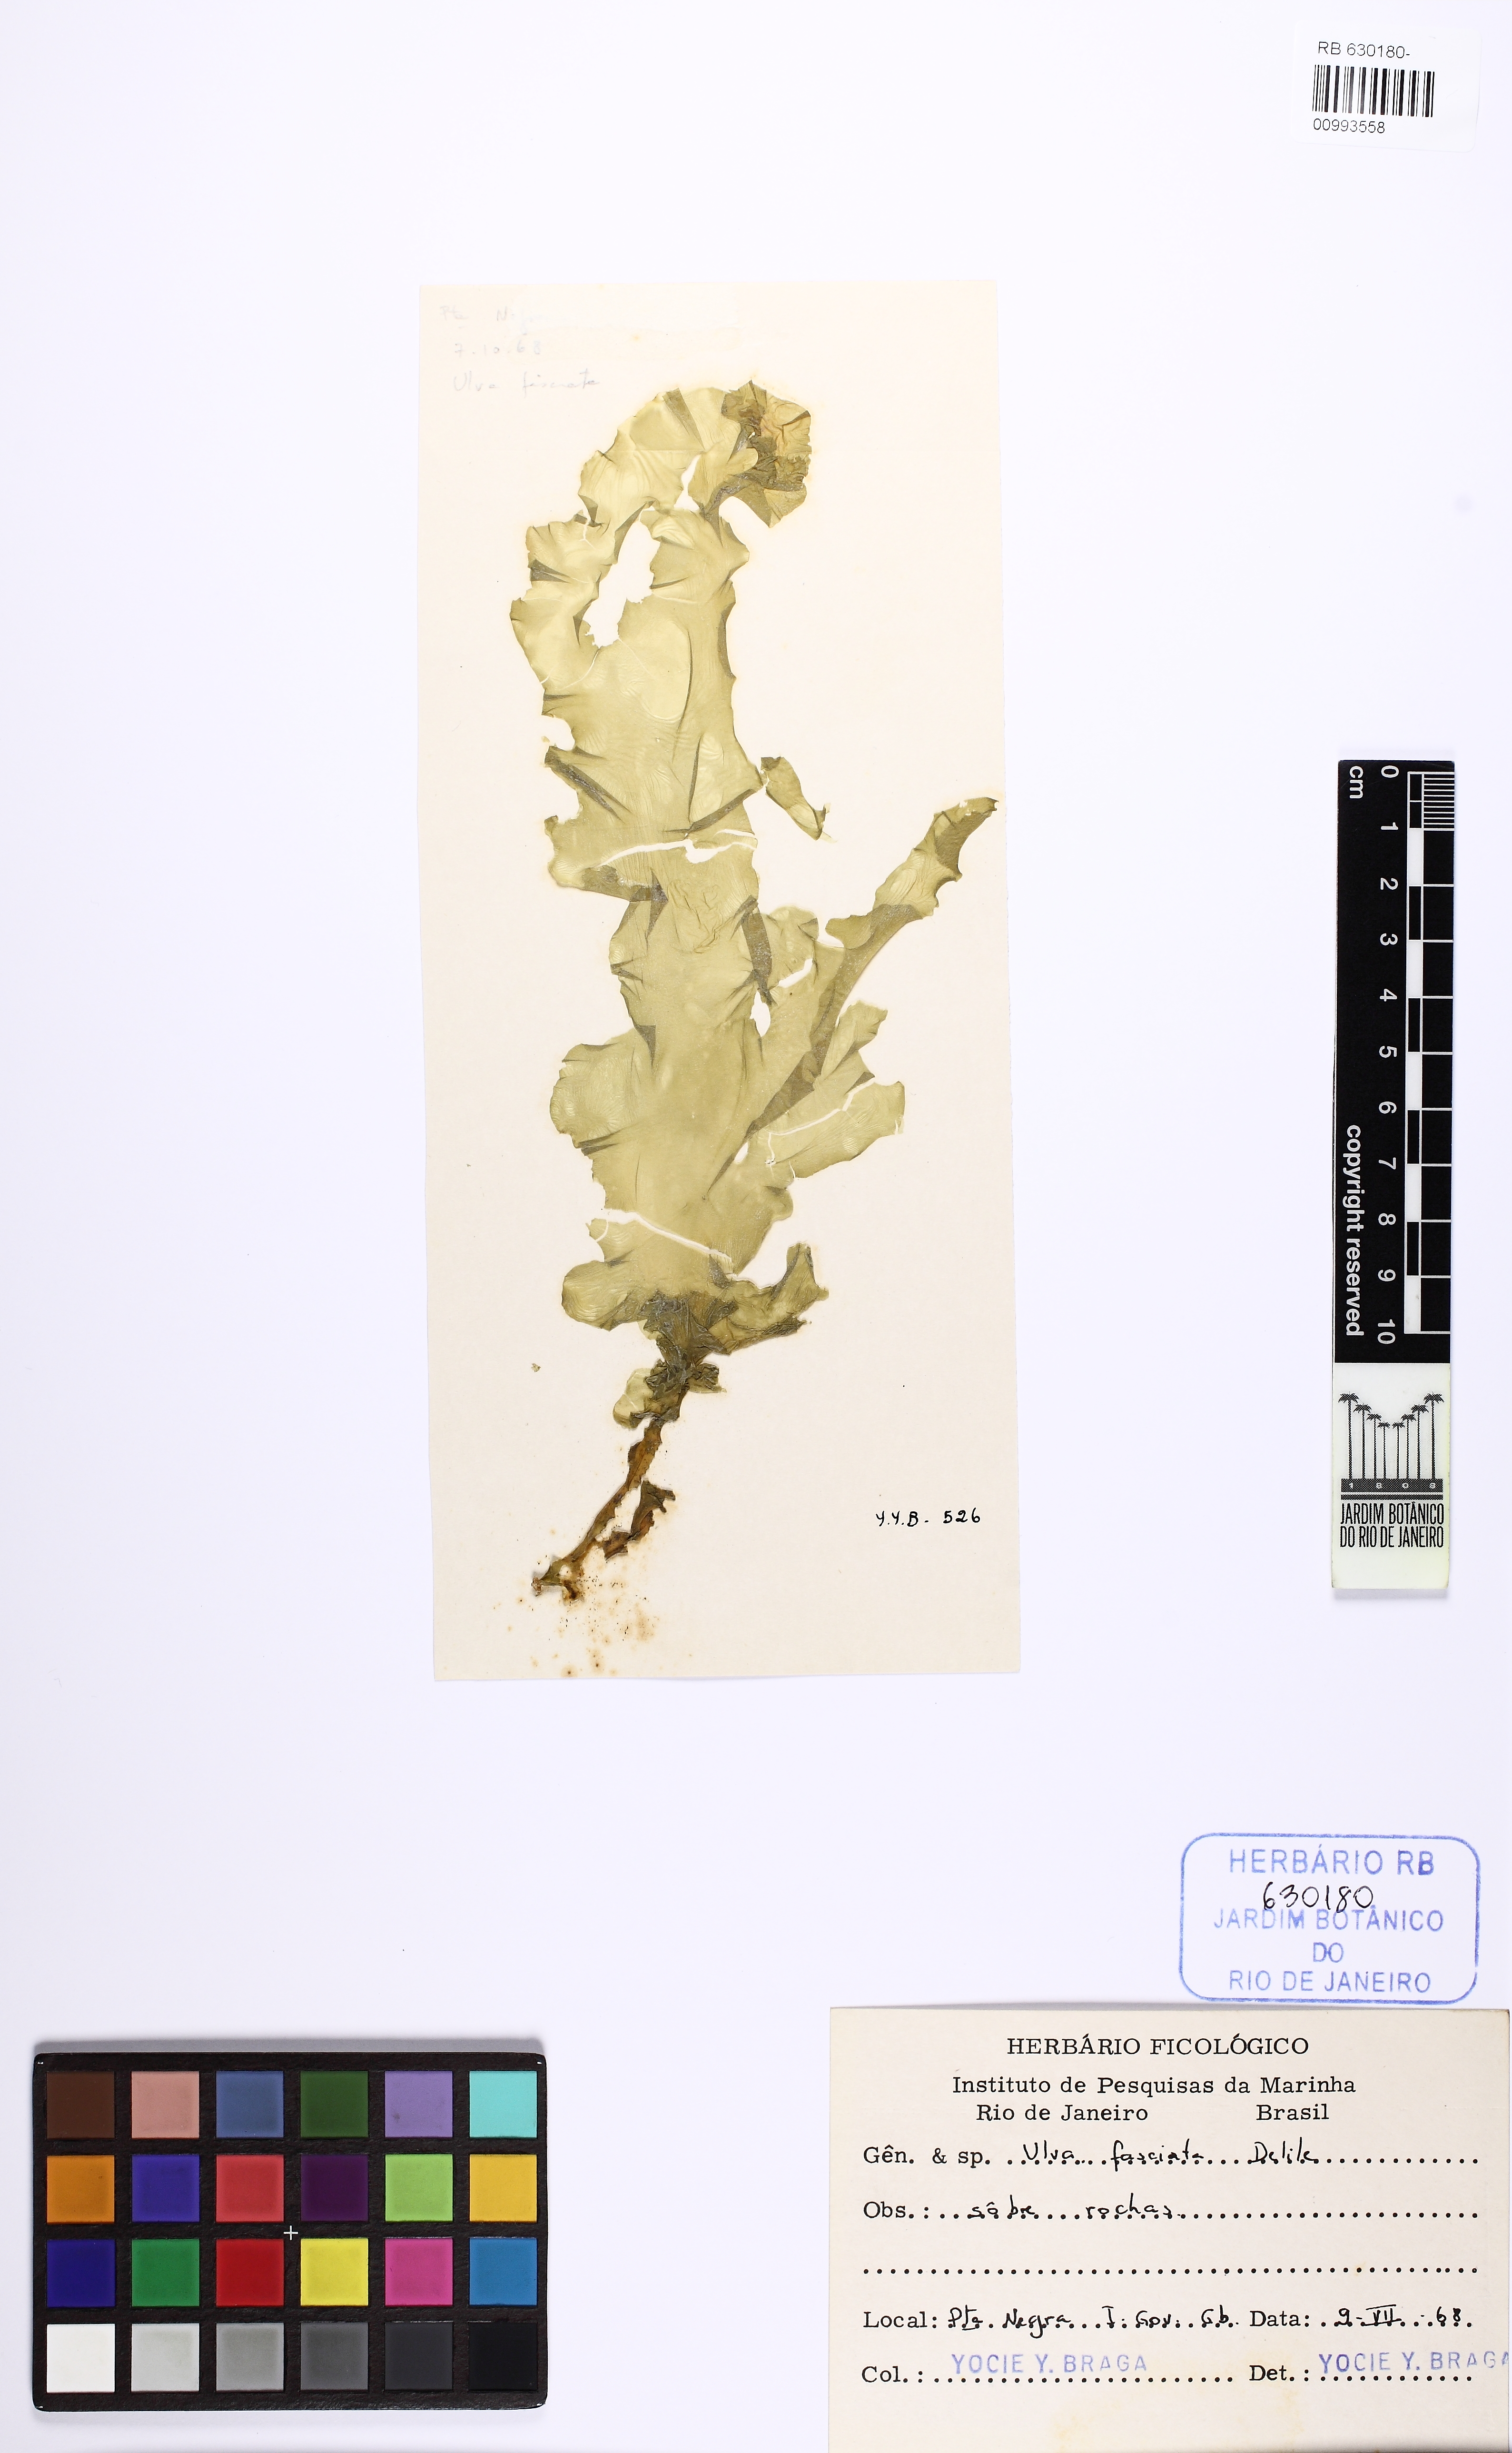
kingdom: Plantae
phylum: Chlorophyta
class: Ulvophyceae
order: Ulvales
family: Ulvaceae
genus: Ulva
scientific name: Ulva lactuca
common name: Sea lettuce
